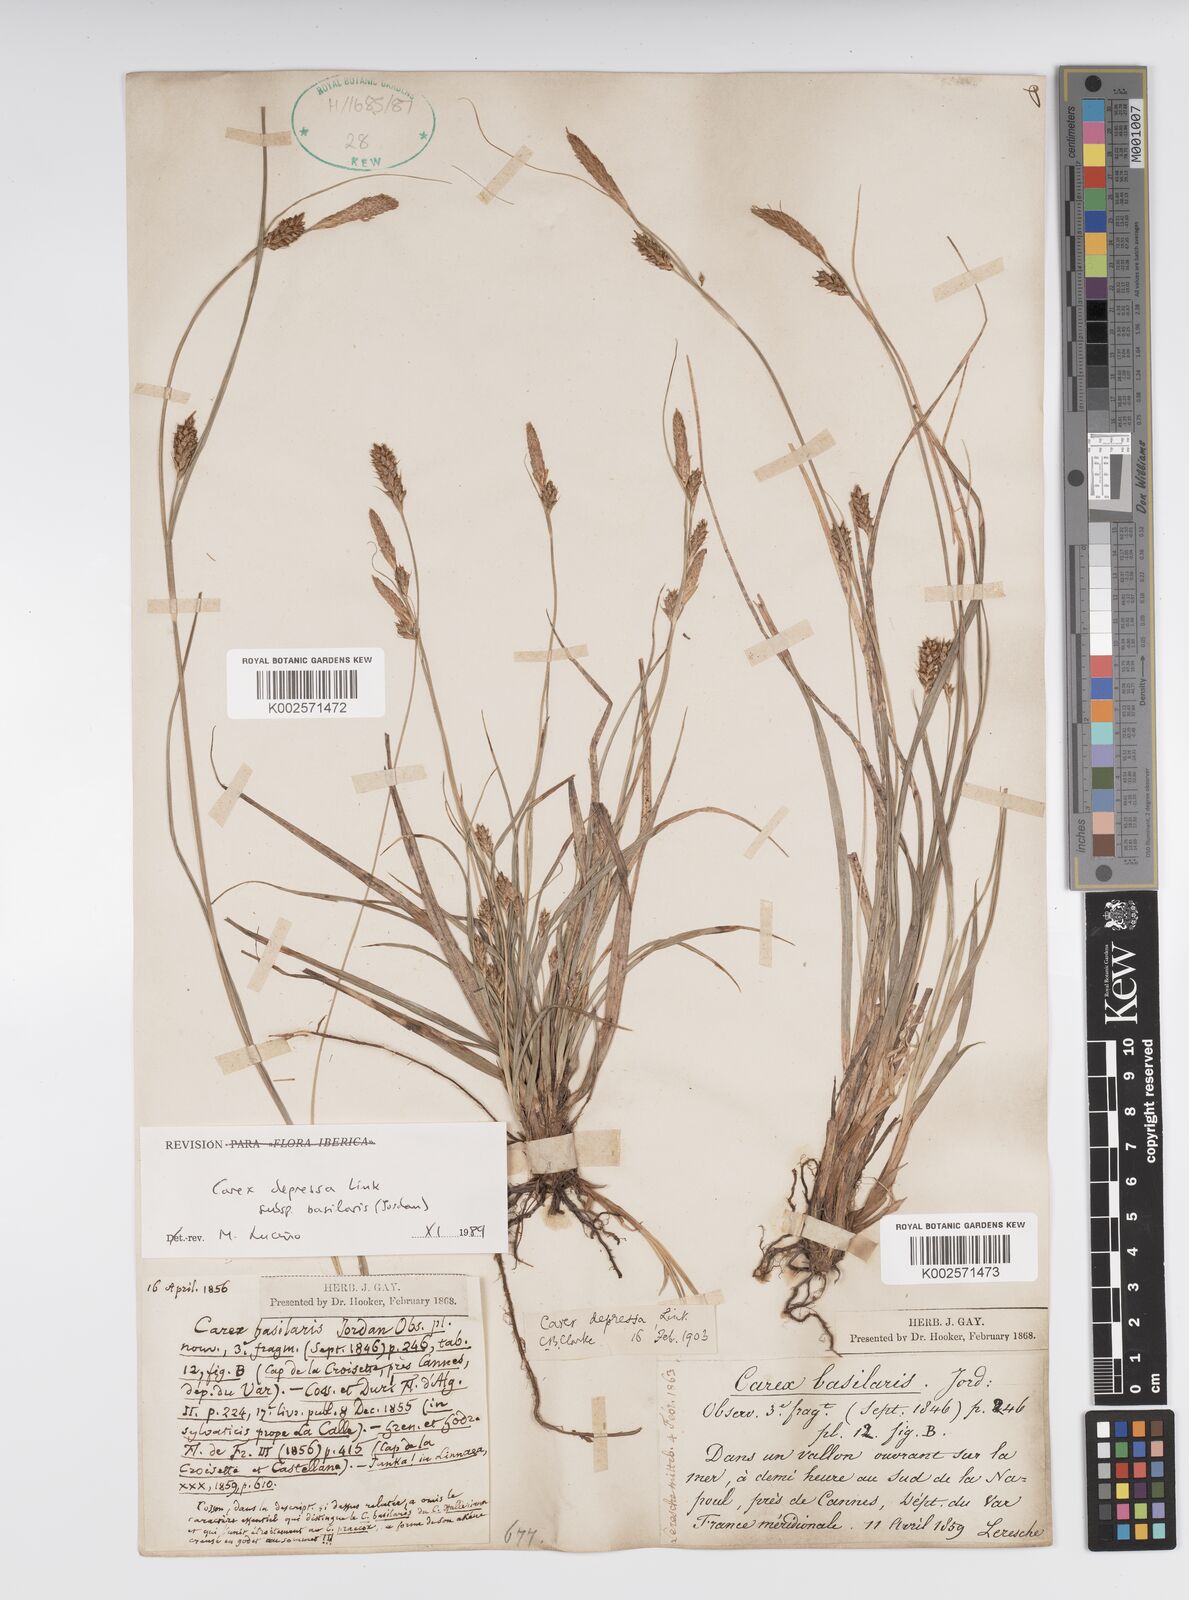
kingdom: Plantae
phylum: Tracheophyta
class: Liliopsida
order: Poales
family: Cyperaceae
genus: Carex
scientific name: Carex depressa
